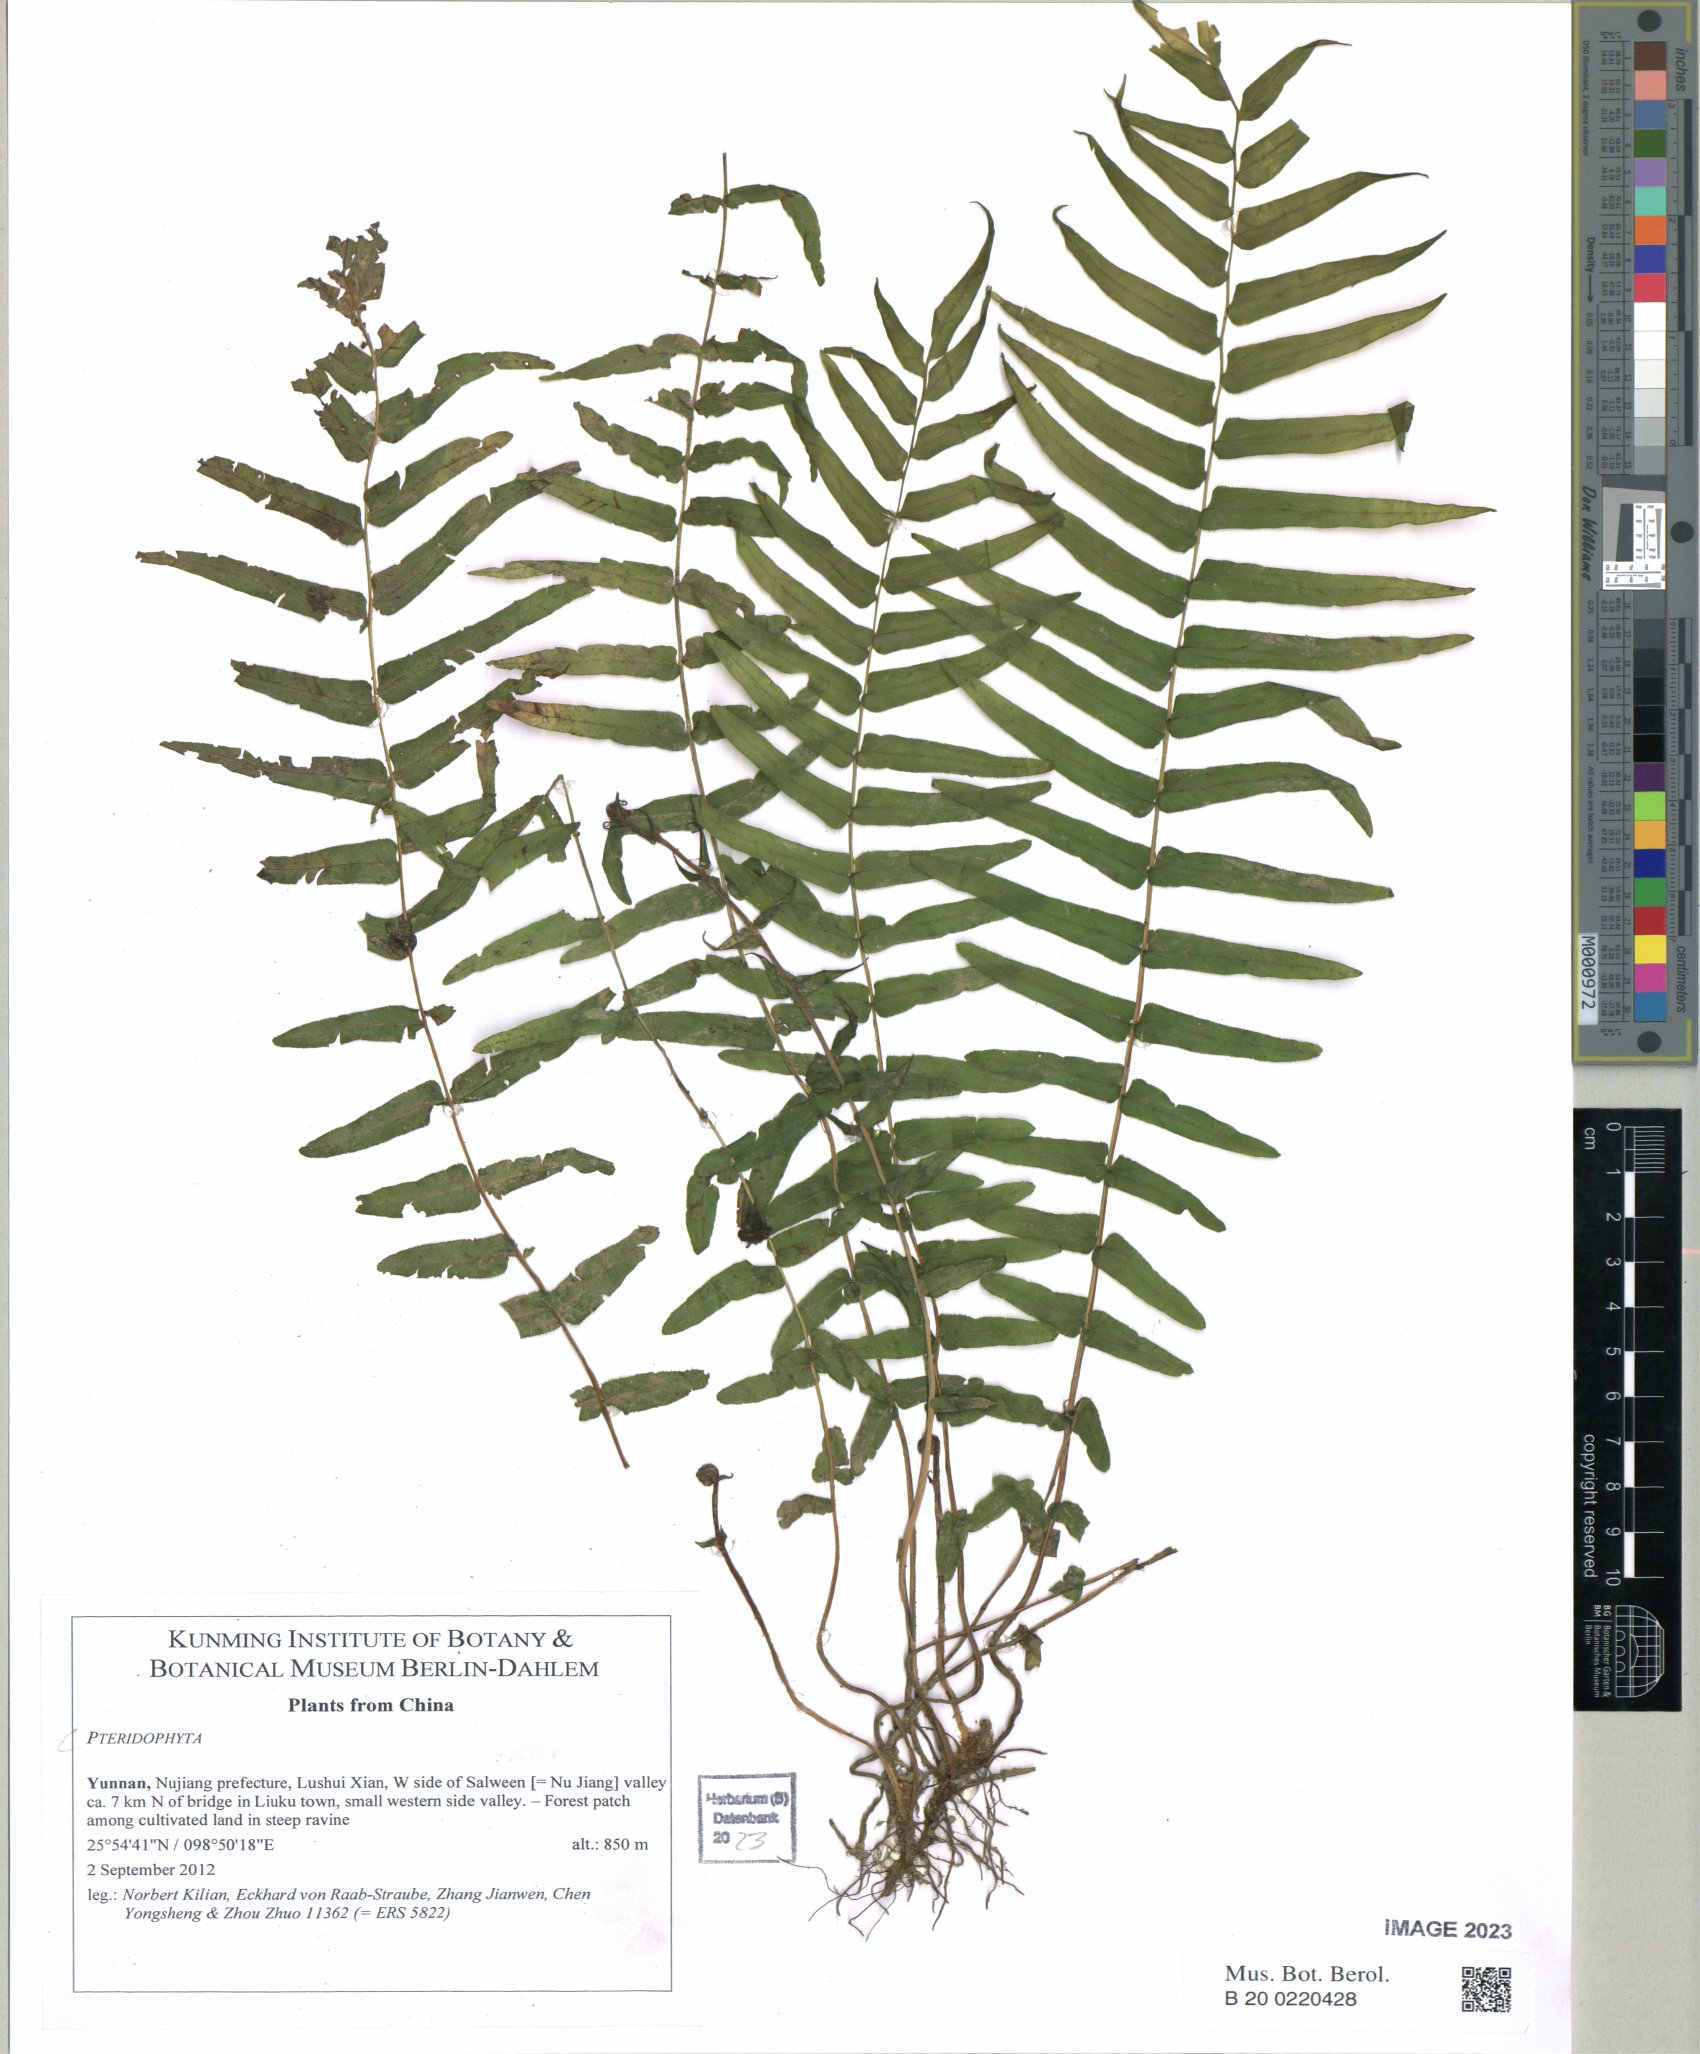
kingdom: Plantae
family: Pteridophyta
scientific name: Pteridophyta
